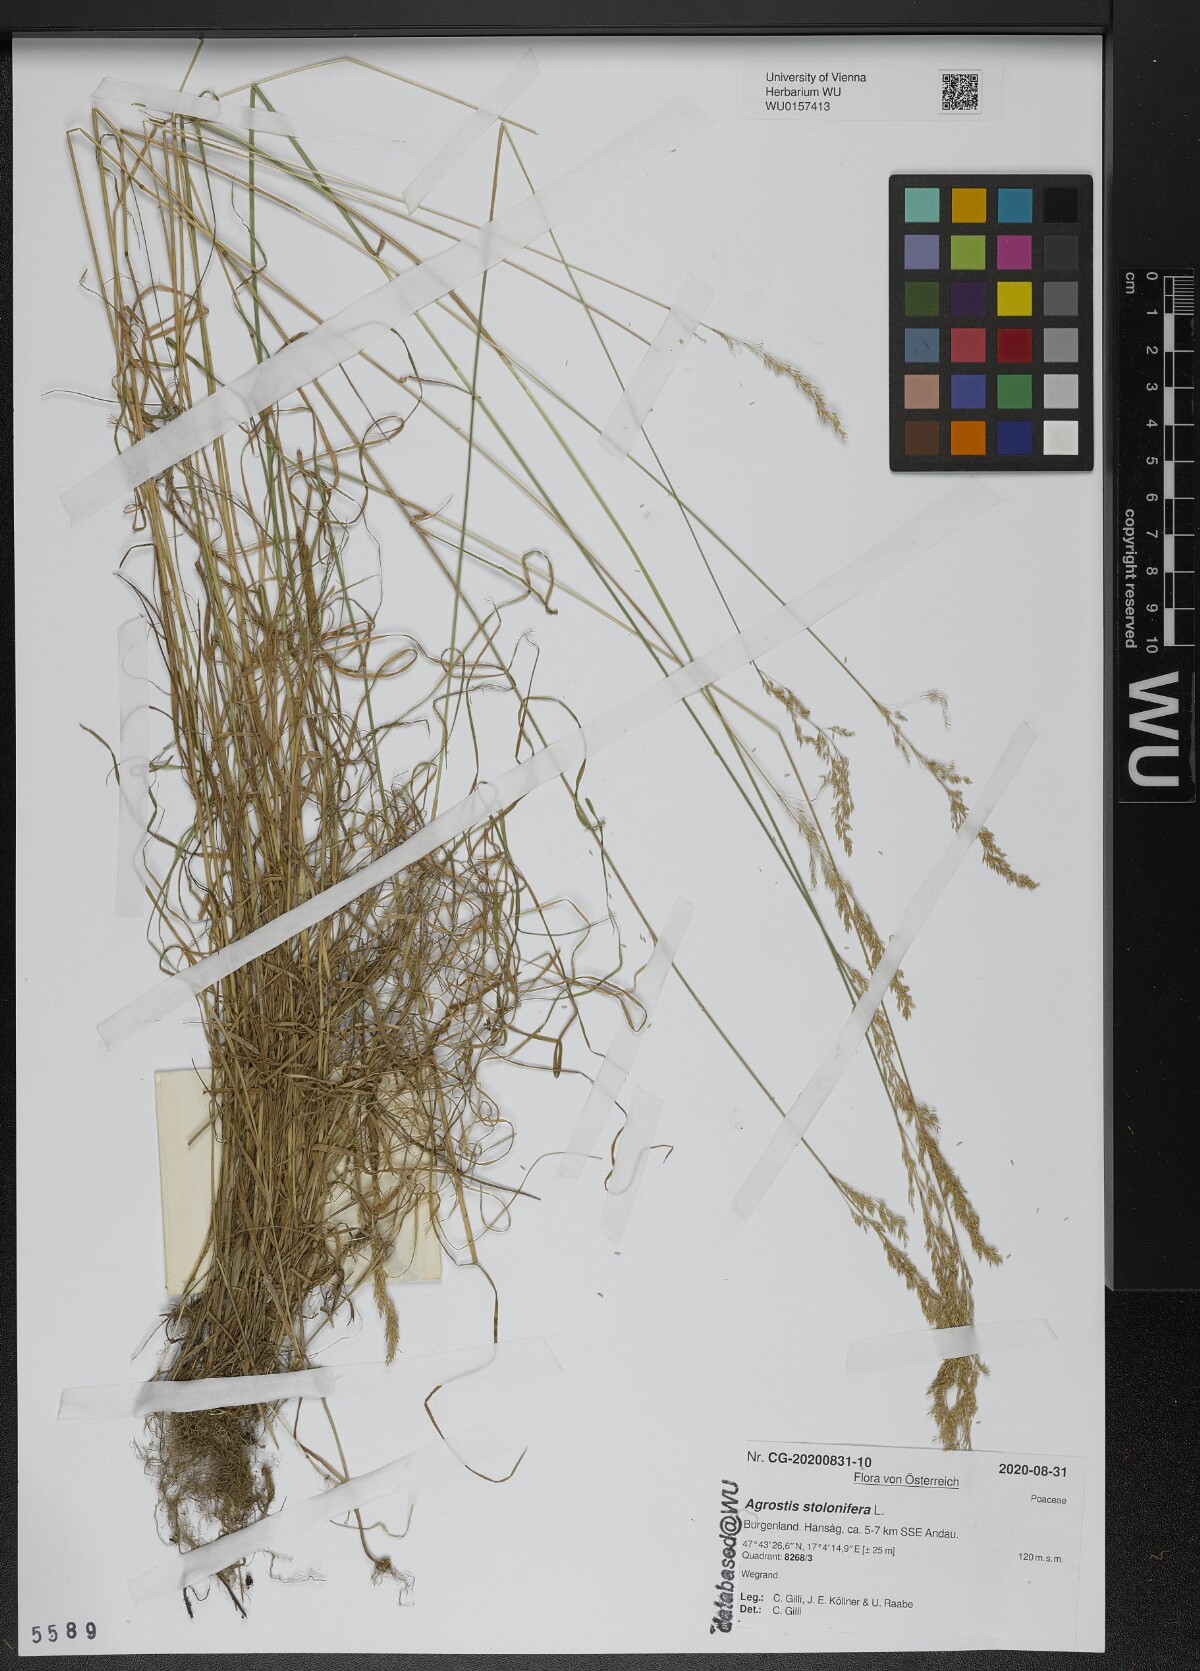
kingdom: Plantae
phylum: Tracheophyta
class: Liliopsida
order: Poales
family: Poaceae
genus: Agrostis
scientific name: Agrostis stolonifera
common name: Creeping bentgrass
